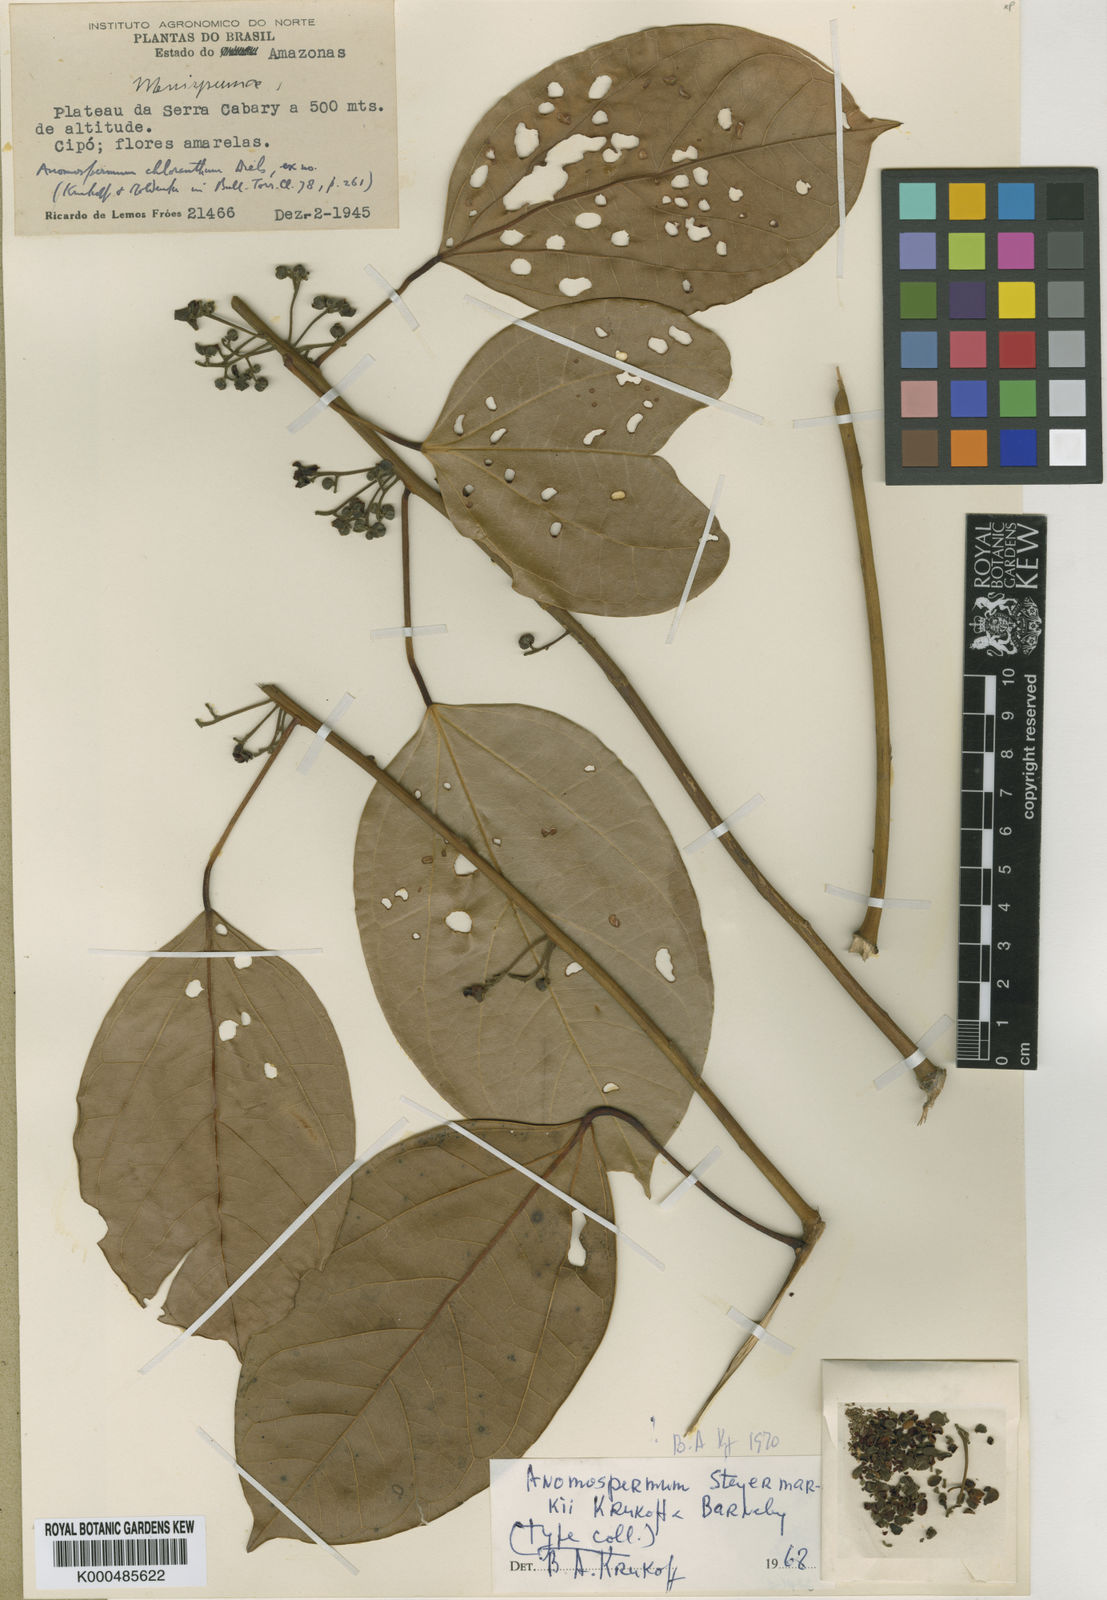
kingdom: Plantae
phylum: Tracheophyta
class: Magnoliopsida
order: Ranunculales
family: Menispermaceae
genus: Abuta
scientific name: Abuta steyermarkii
